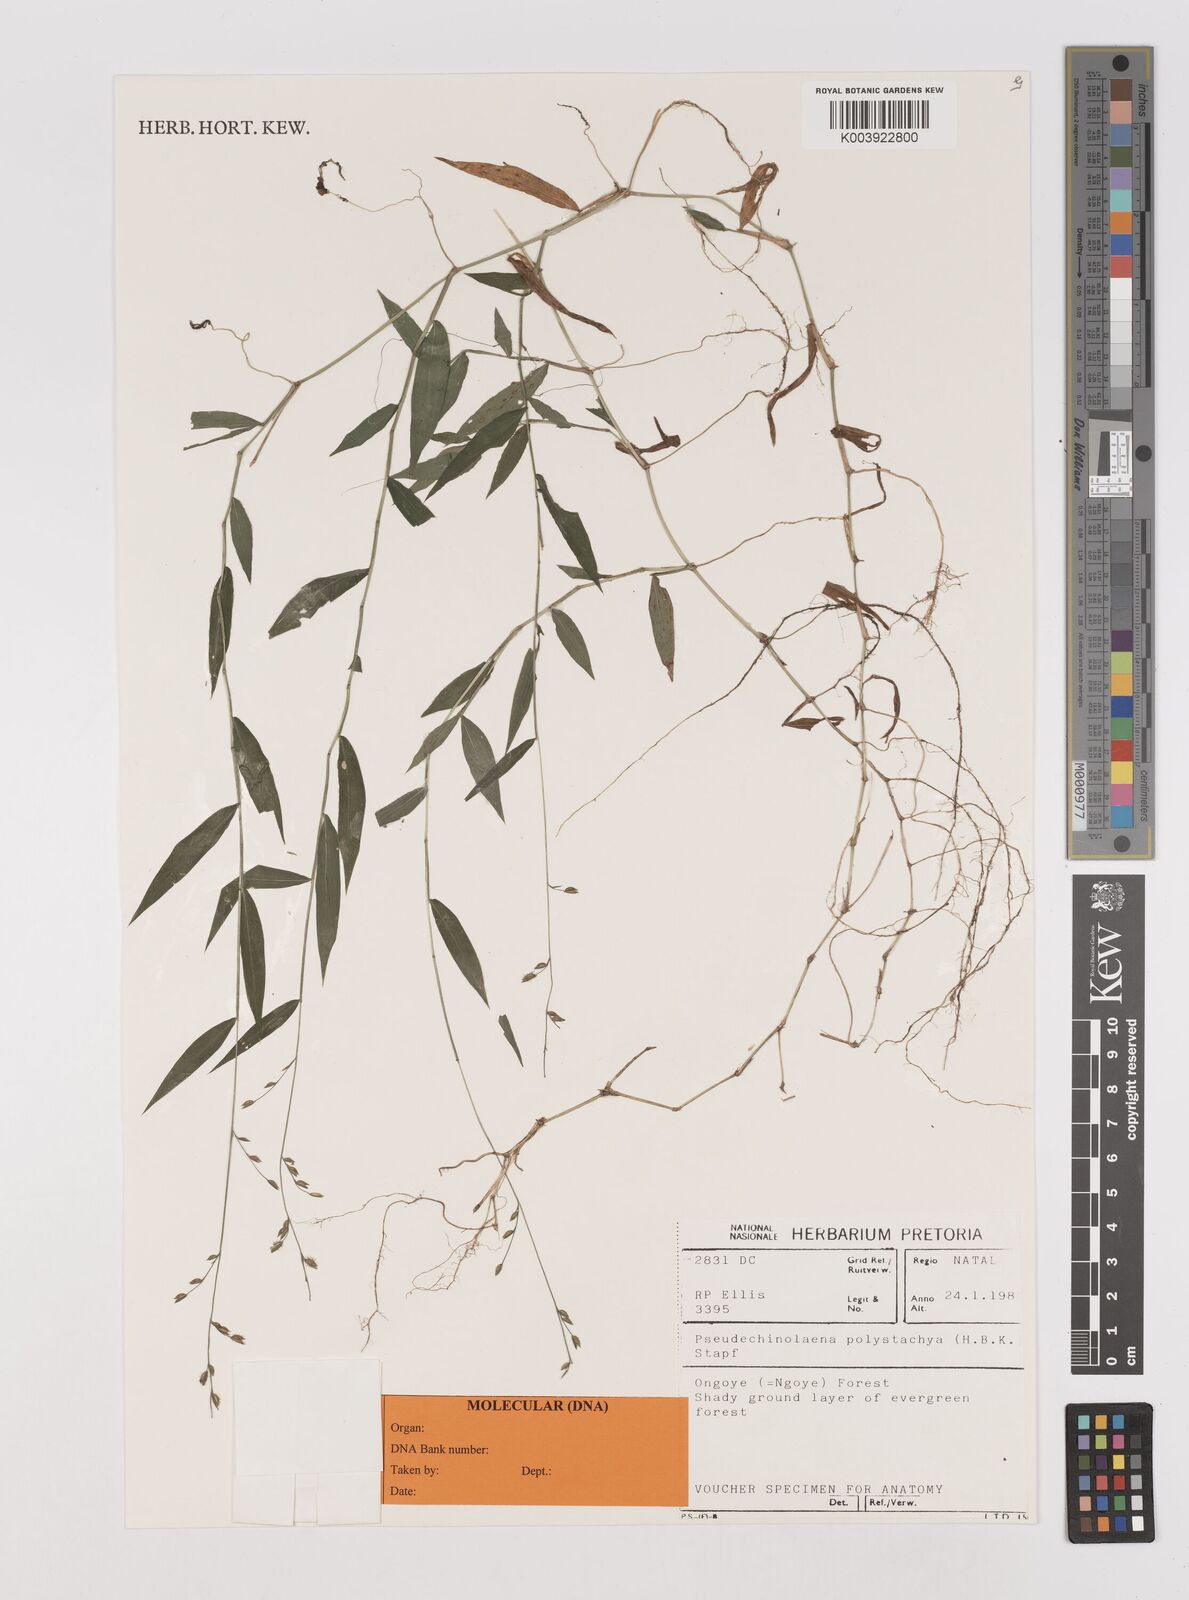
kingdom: Plantae
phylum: Tracheophyta
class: Liliopsida
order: Poales
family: Poaceae
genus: Pseudechinolaena
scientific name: Pseudechinolaena polystachya
